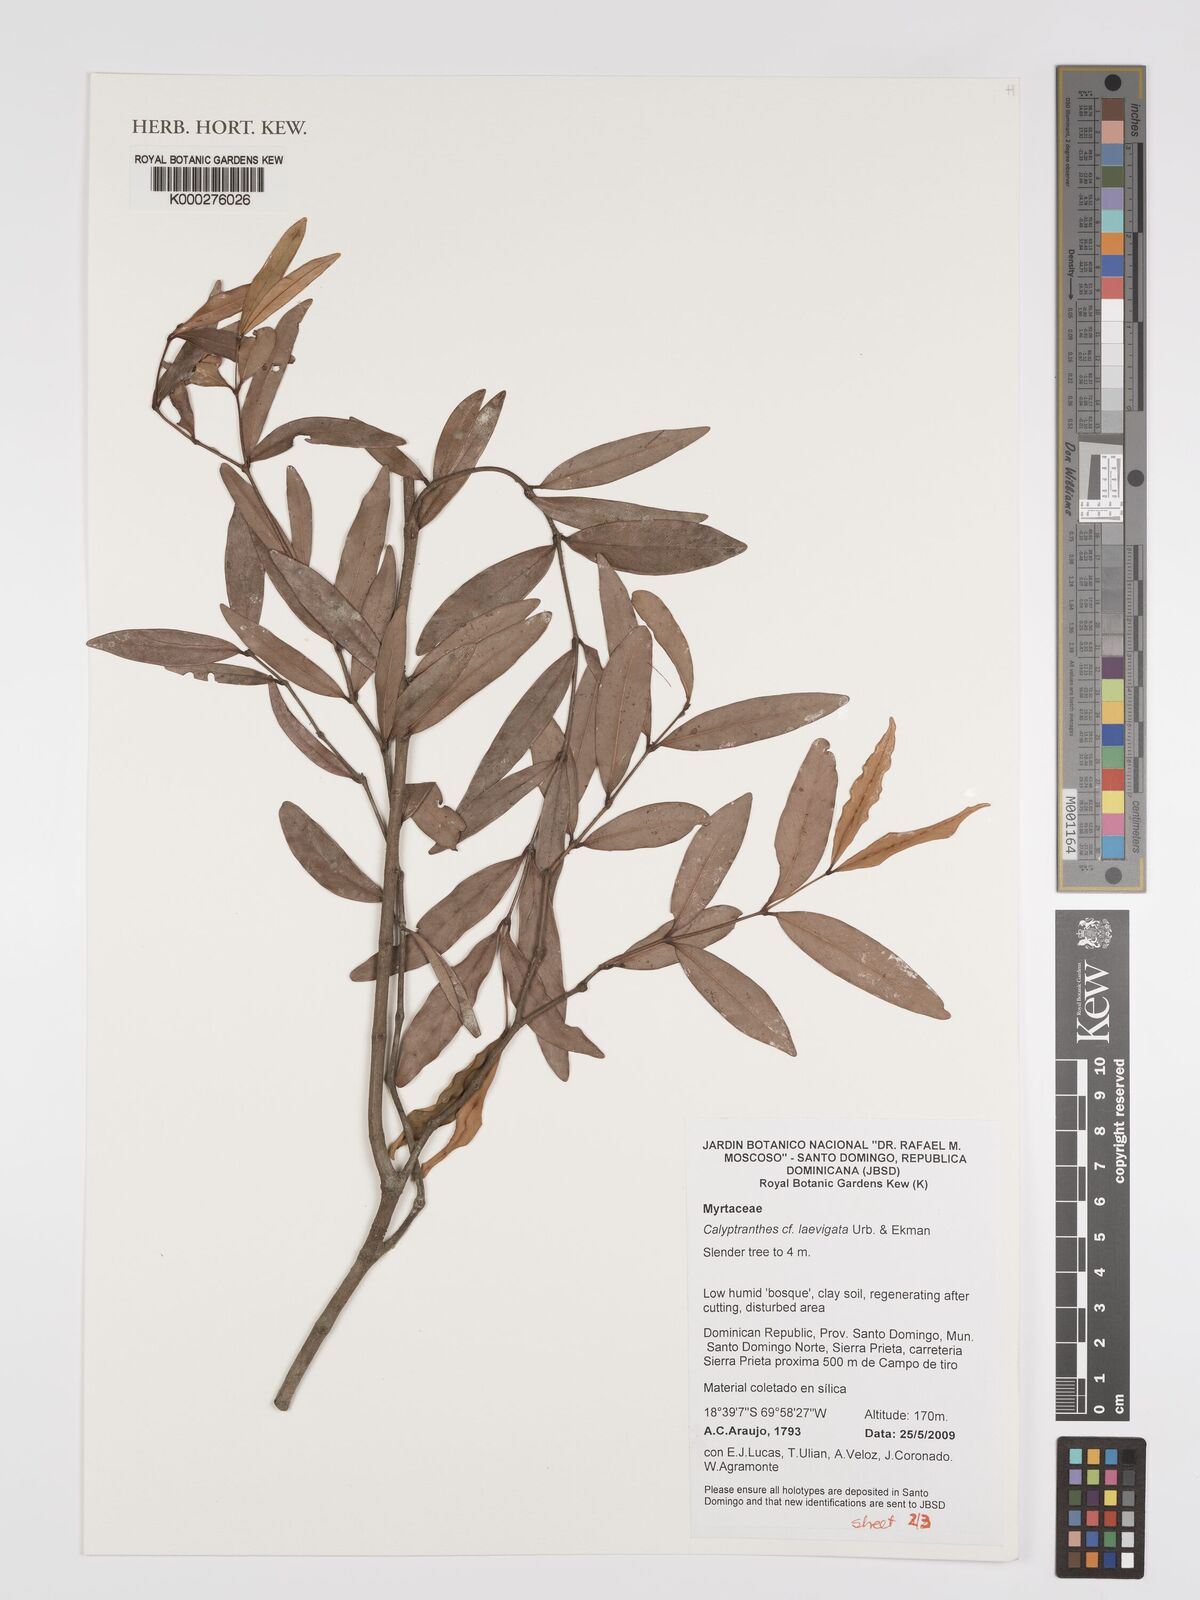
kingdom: Plantae
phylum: Tracheophyta
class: Magnoliopsida
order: Myrtales
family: Myrtaceae
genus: Myrcia
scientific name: Myrcia neolaevigata
